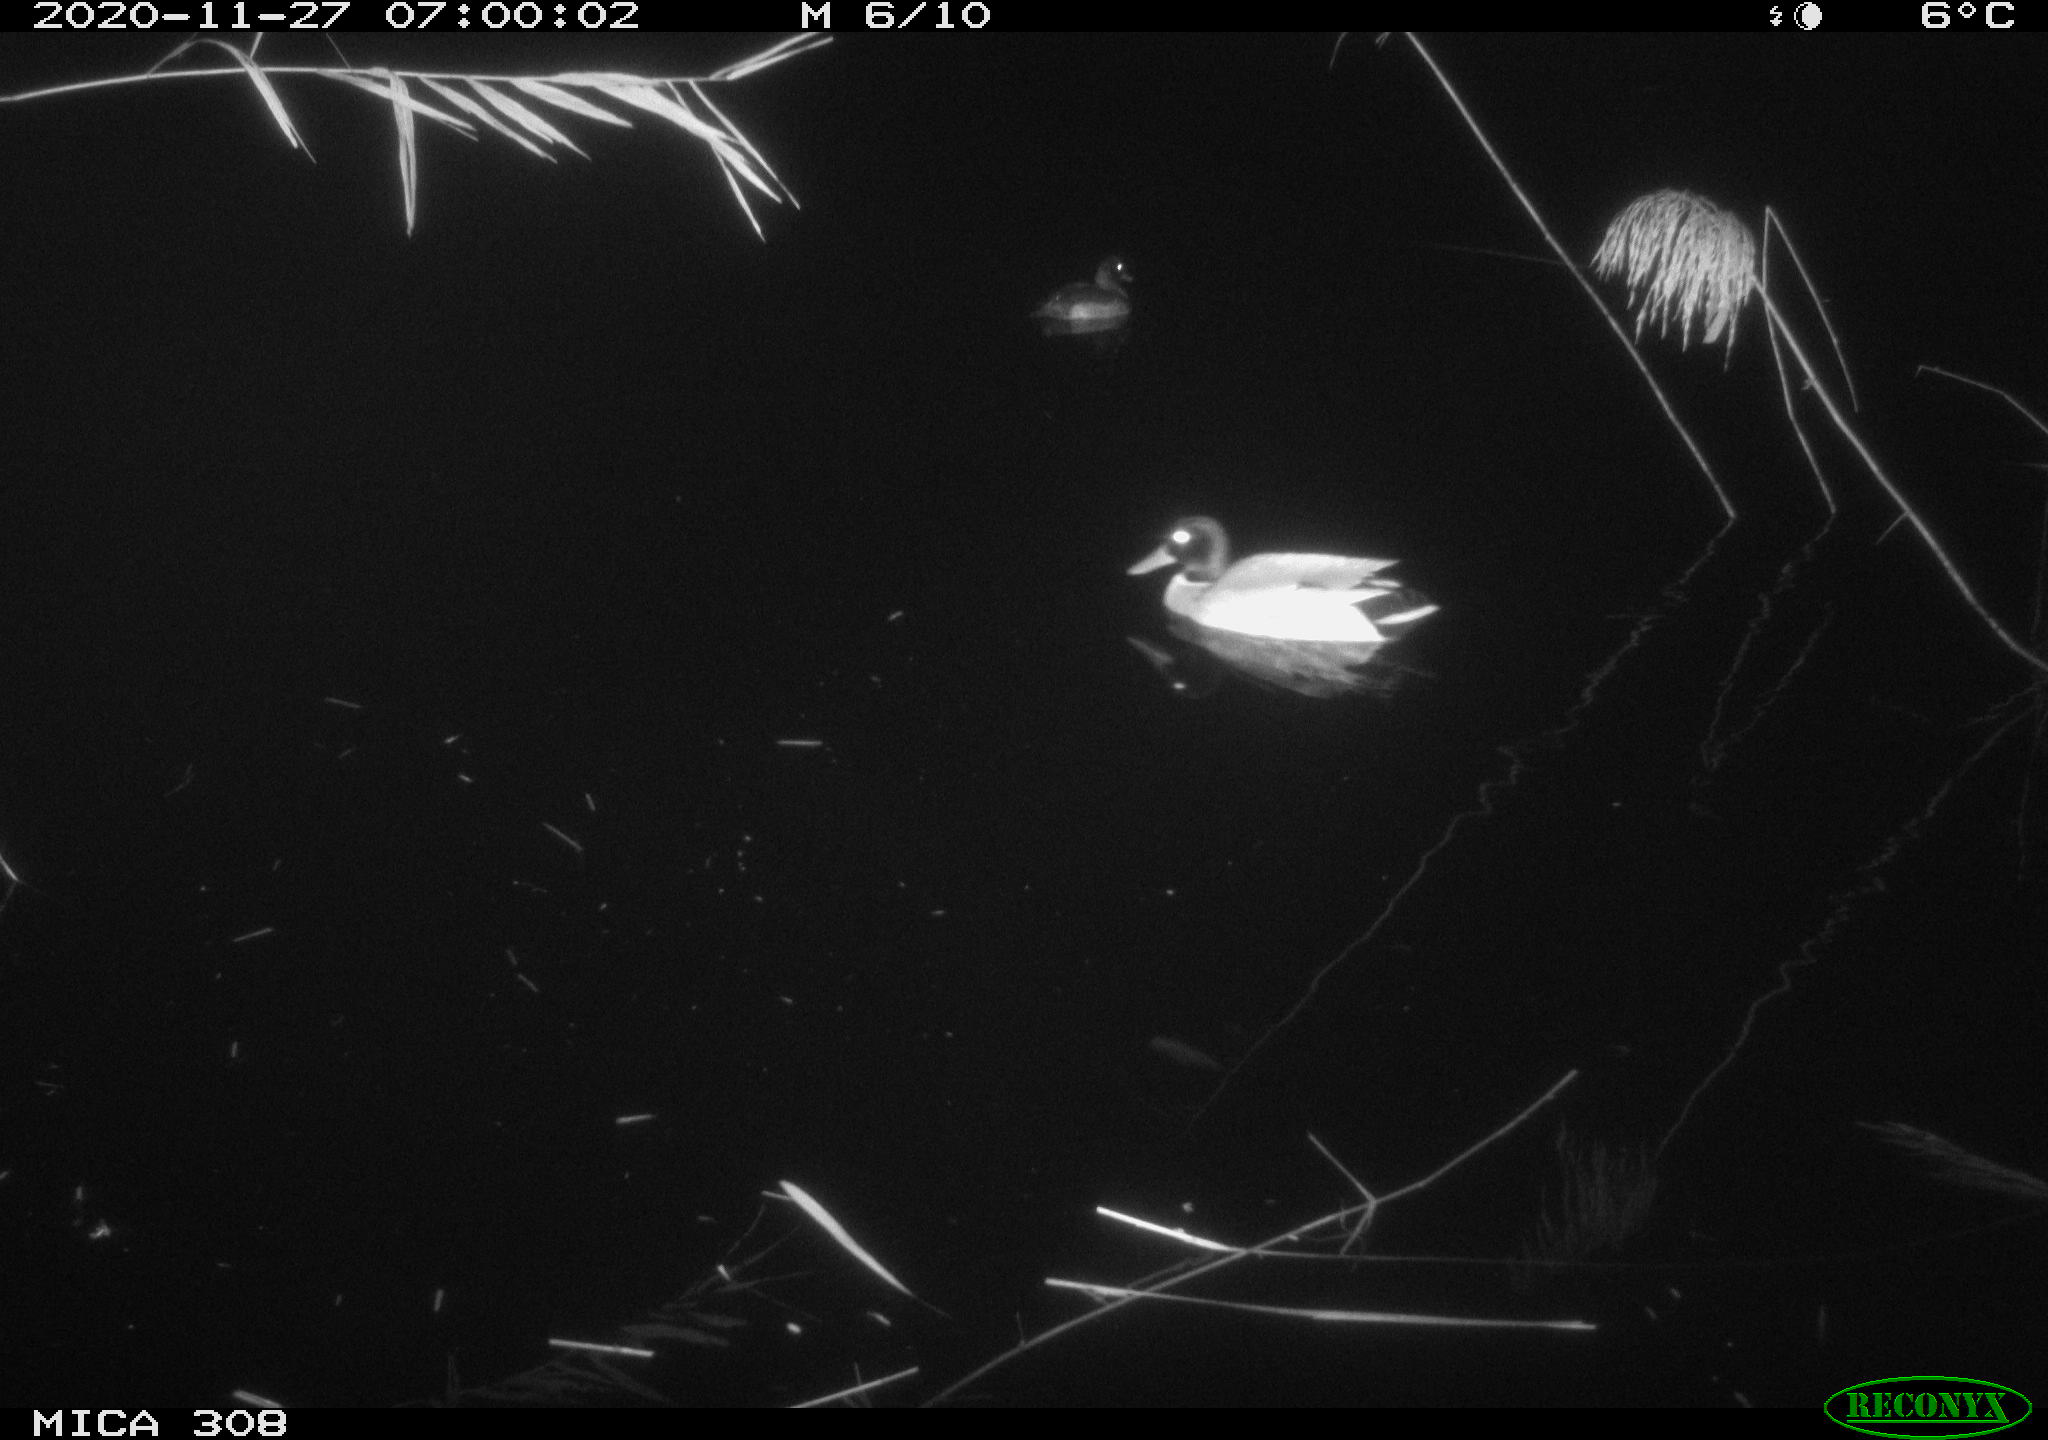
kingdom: Animalia
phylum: Chordata
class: Aves
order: Anseriformes
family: Anatidae
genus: Anas
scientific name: Anas platyrhynchos
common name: Mallard
